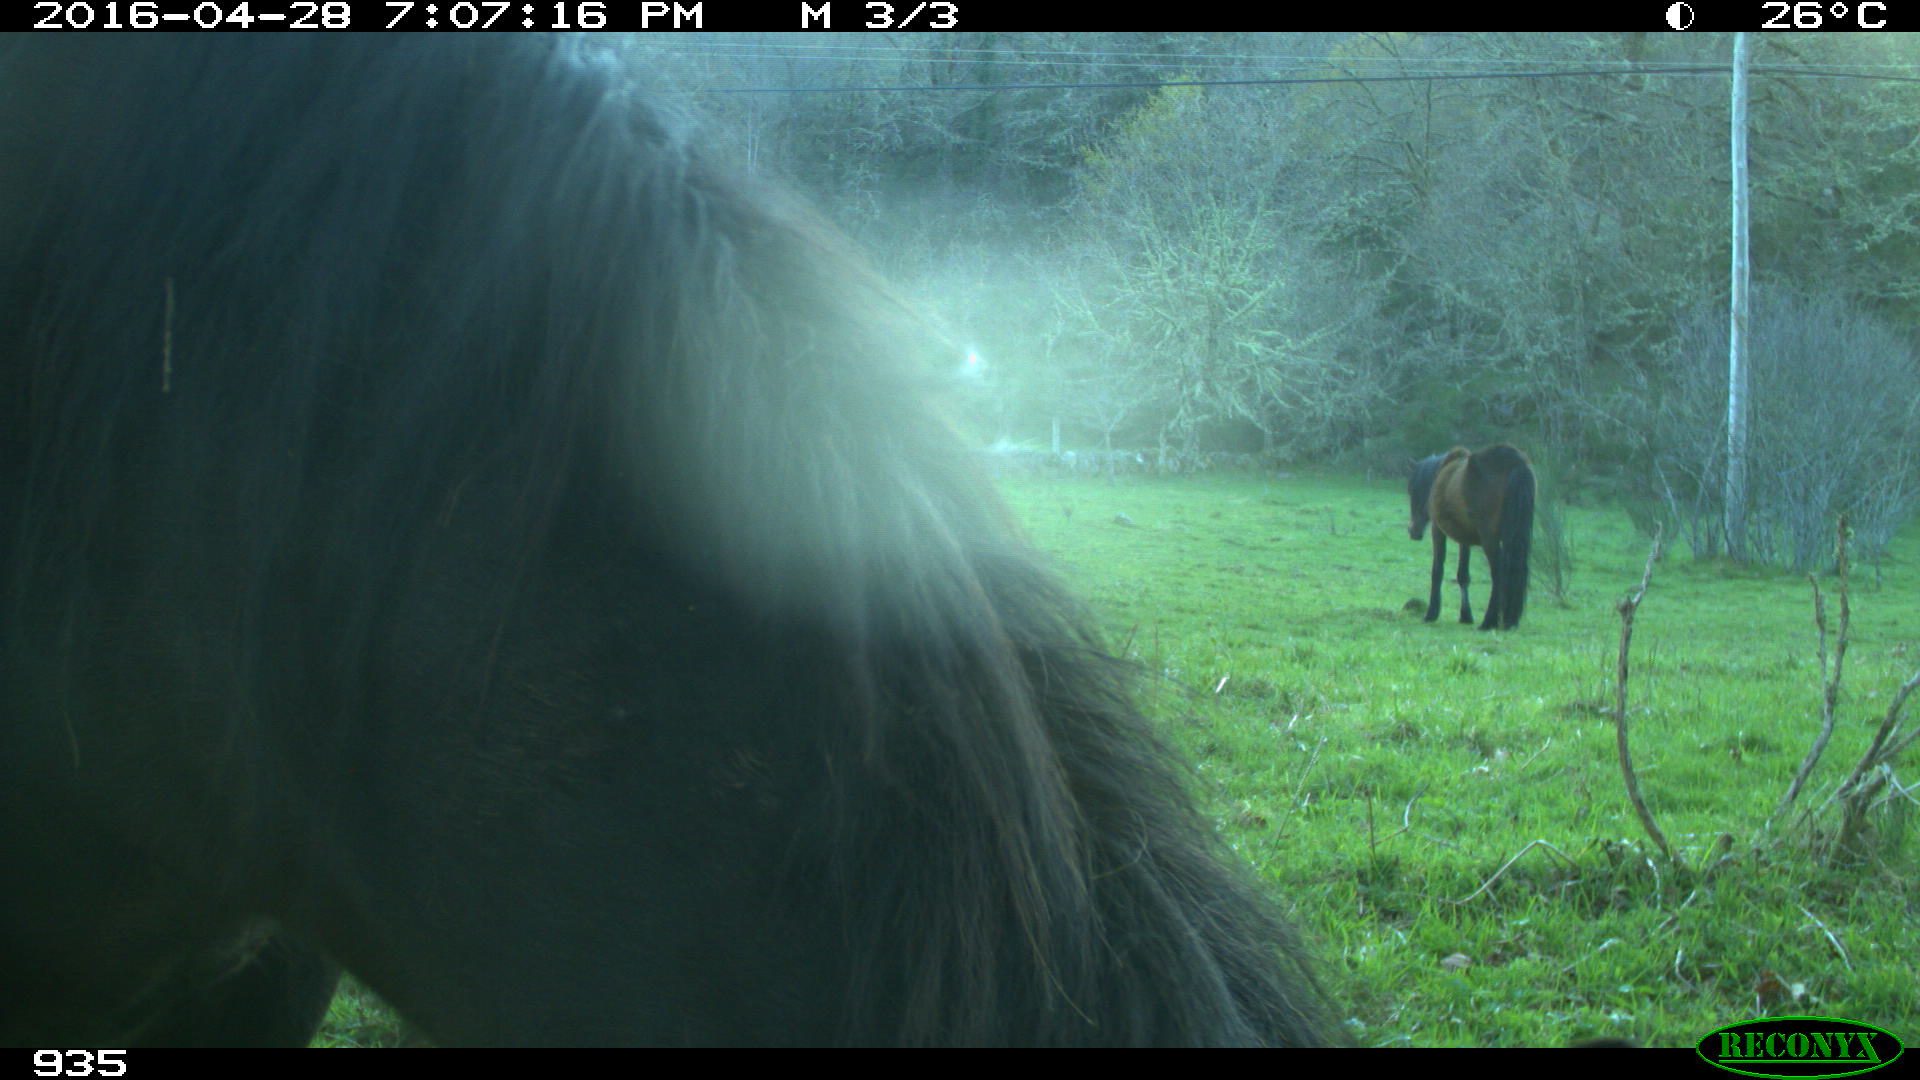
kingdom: Animalia
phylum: Chordata
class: Mammalia
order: Perissodactyla
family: Equidae
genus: Equus
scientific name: Equus caballus
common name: Horse
